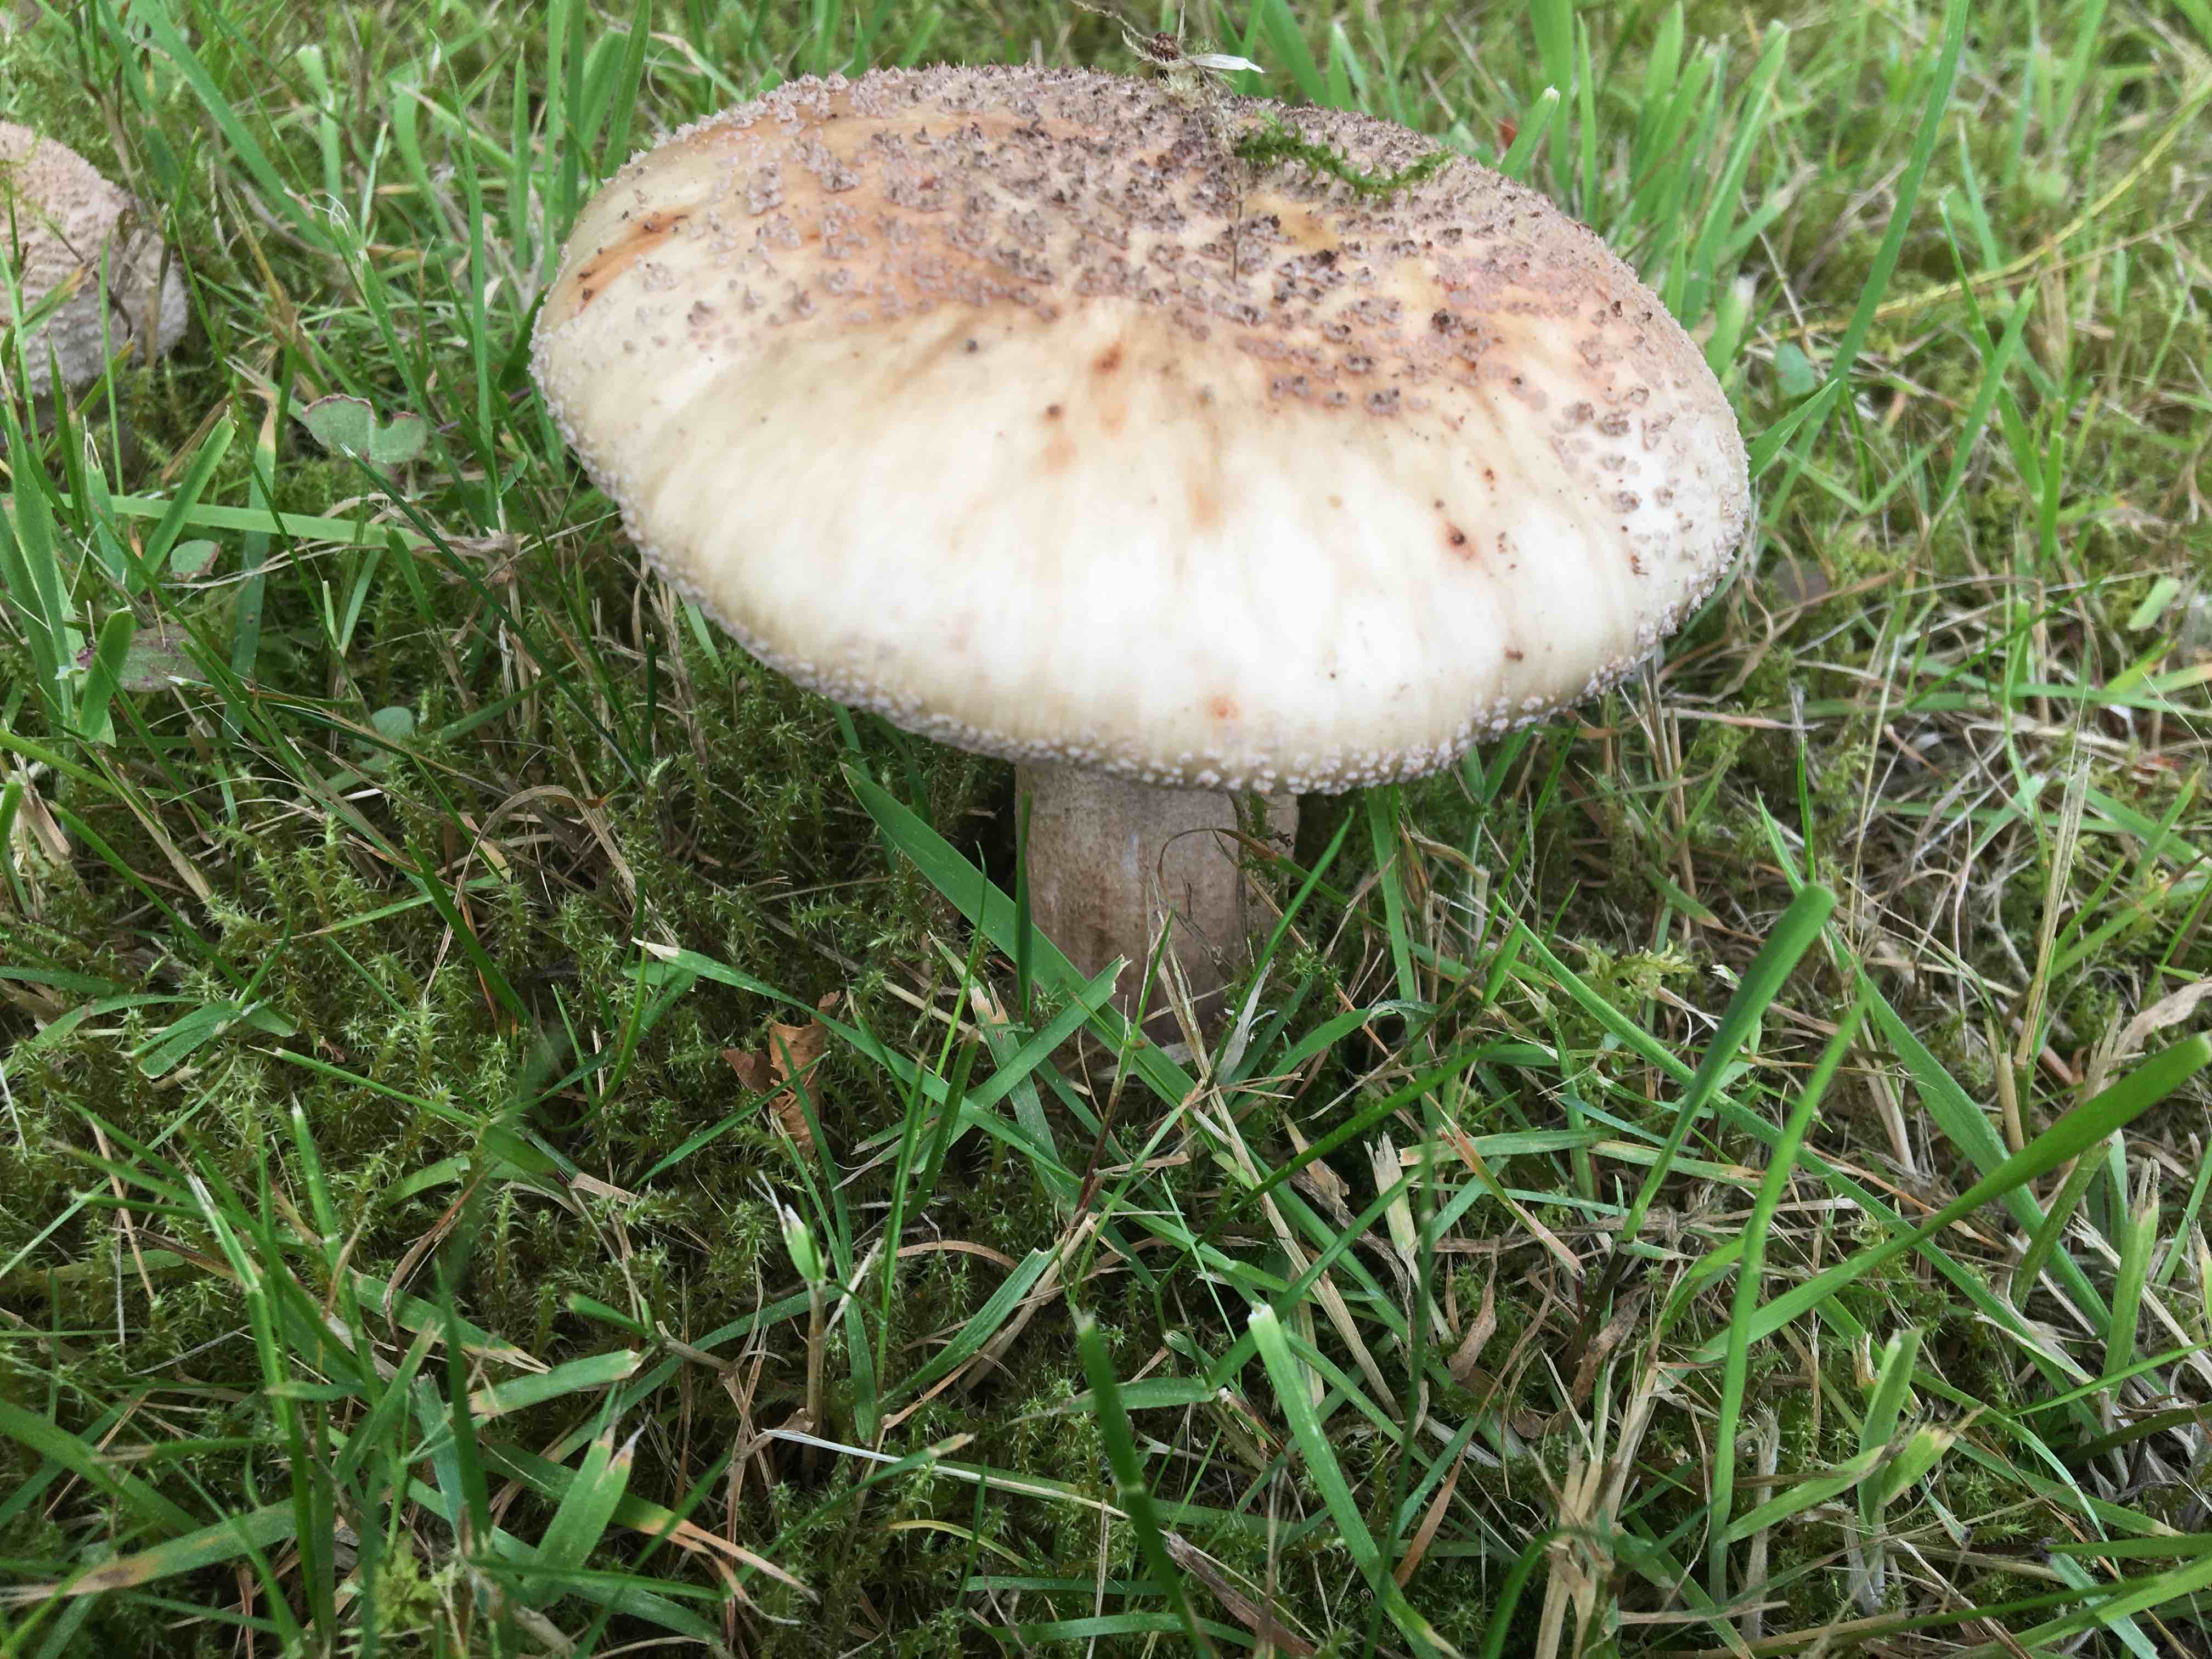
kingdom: Fungi
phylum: Basidiomycota
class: Agaricomycetes
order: Agaricales
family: Amanitaceae
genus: Amanita
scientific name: Amanita rubescens
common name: rødmende fluesvamp
